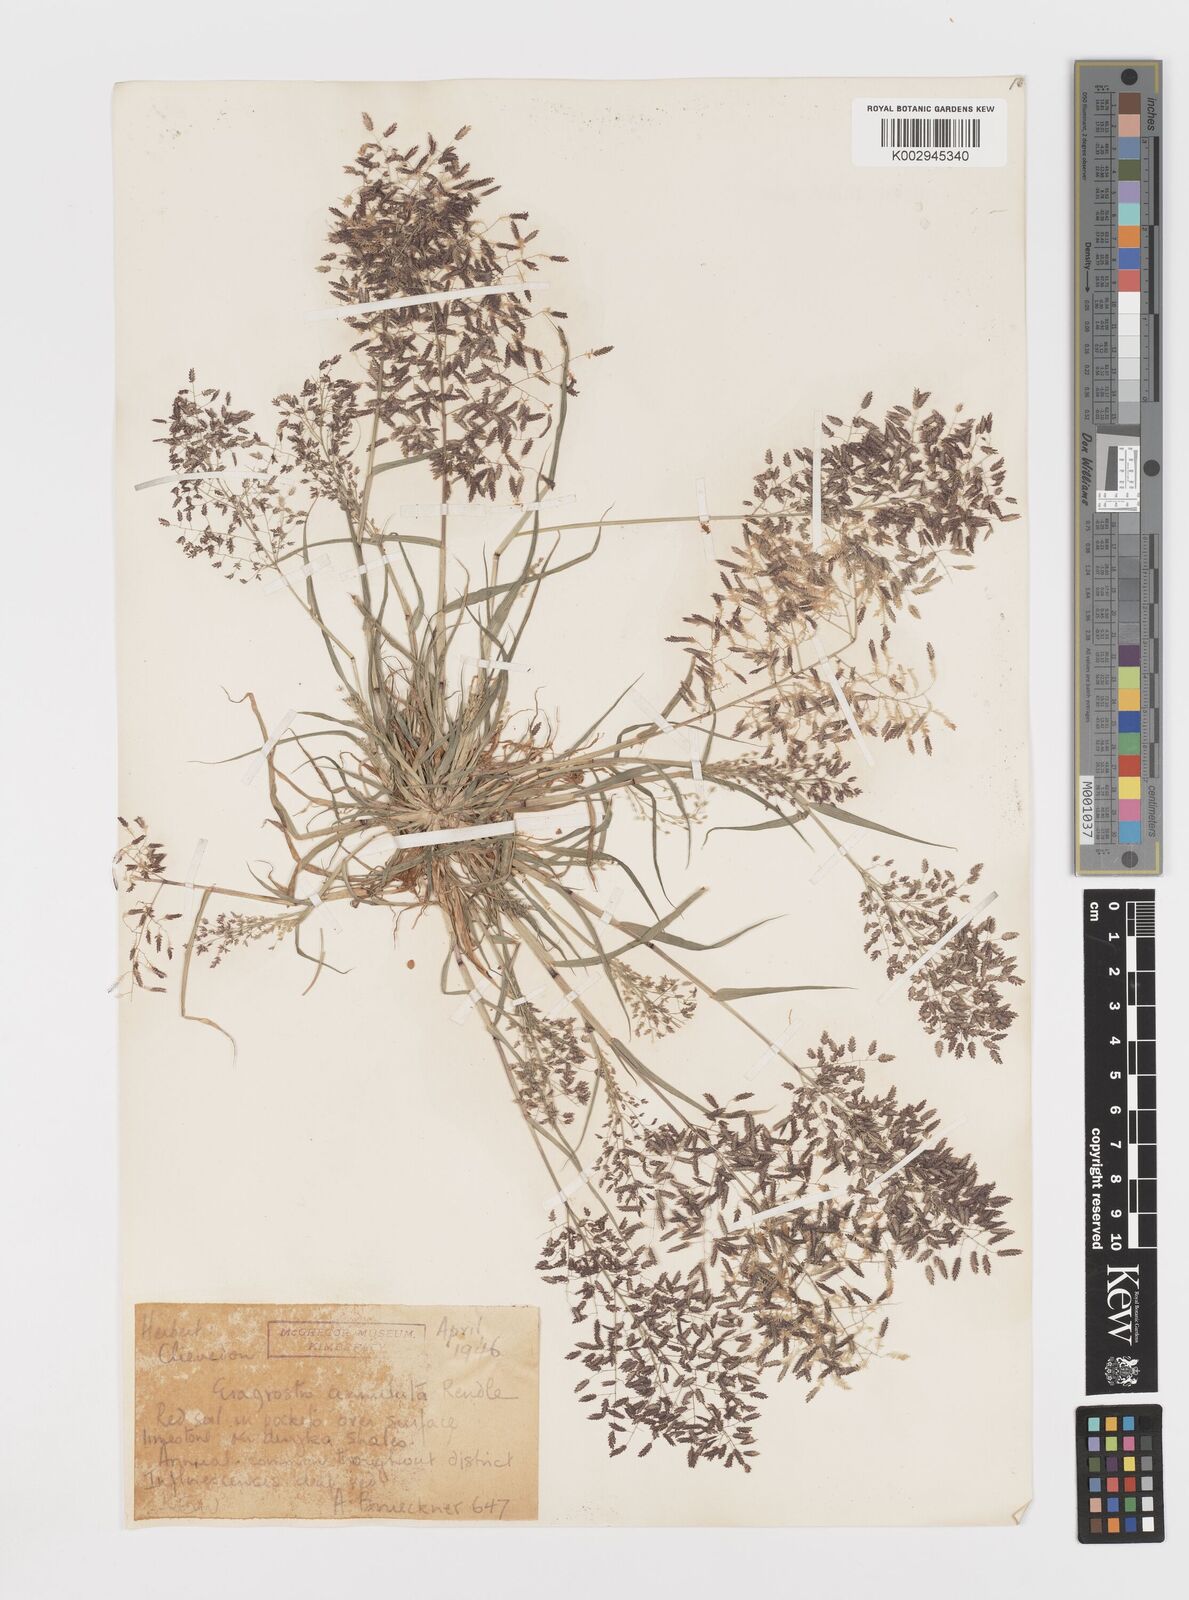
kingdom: Plantae
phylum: Tracheophyta
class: Liliopsida
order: Poales
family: Poaceae
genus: Eragrostis
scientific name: Eragrostis annulata
